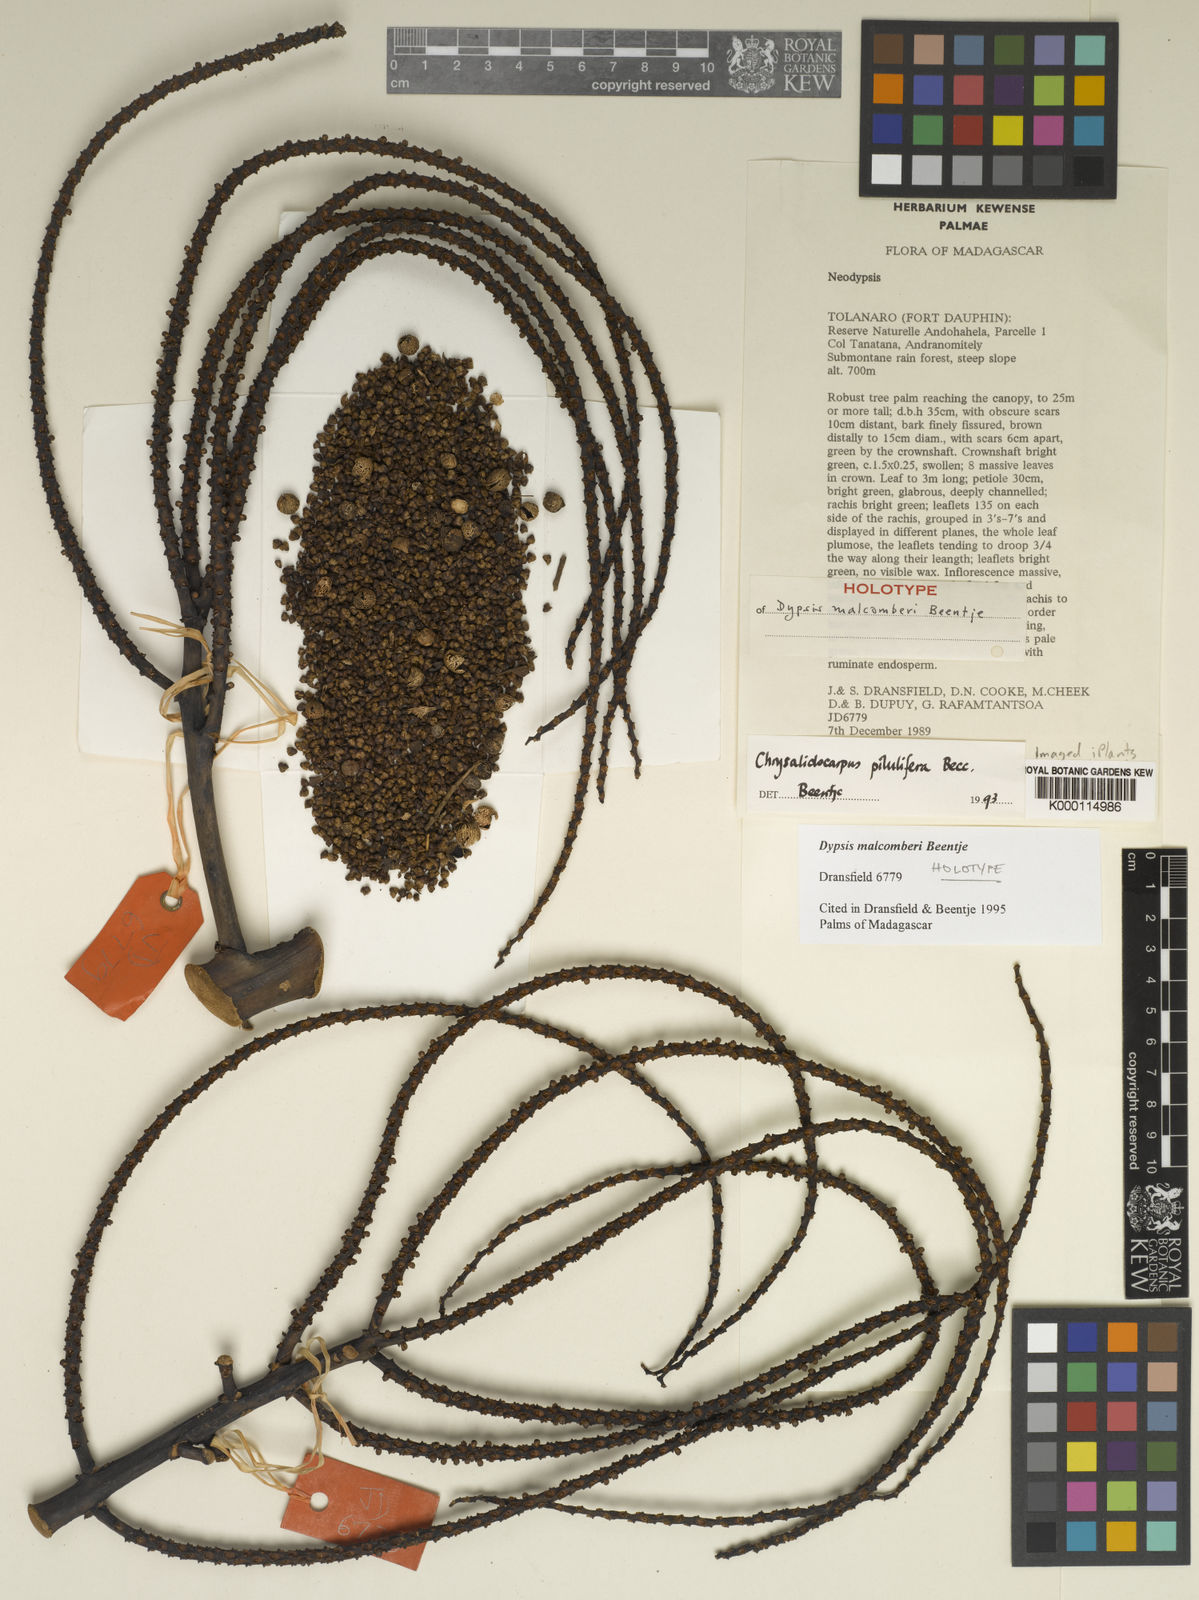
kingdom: Plantae
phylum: Tracheophyta
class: Liliopsida
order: Arecales
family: Arecaceae
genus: Dypsis
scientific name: Dypsis malcomberi
